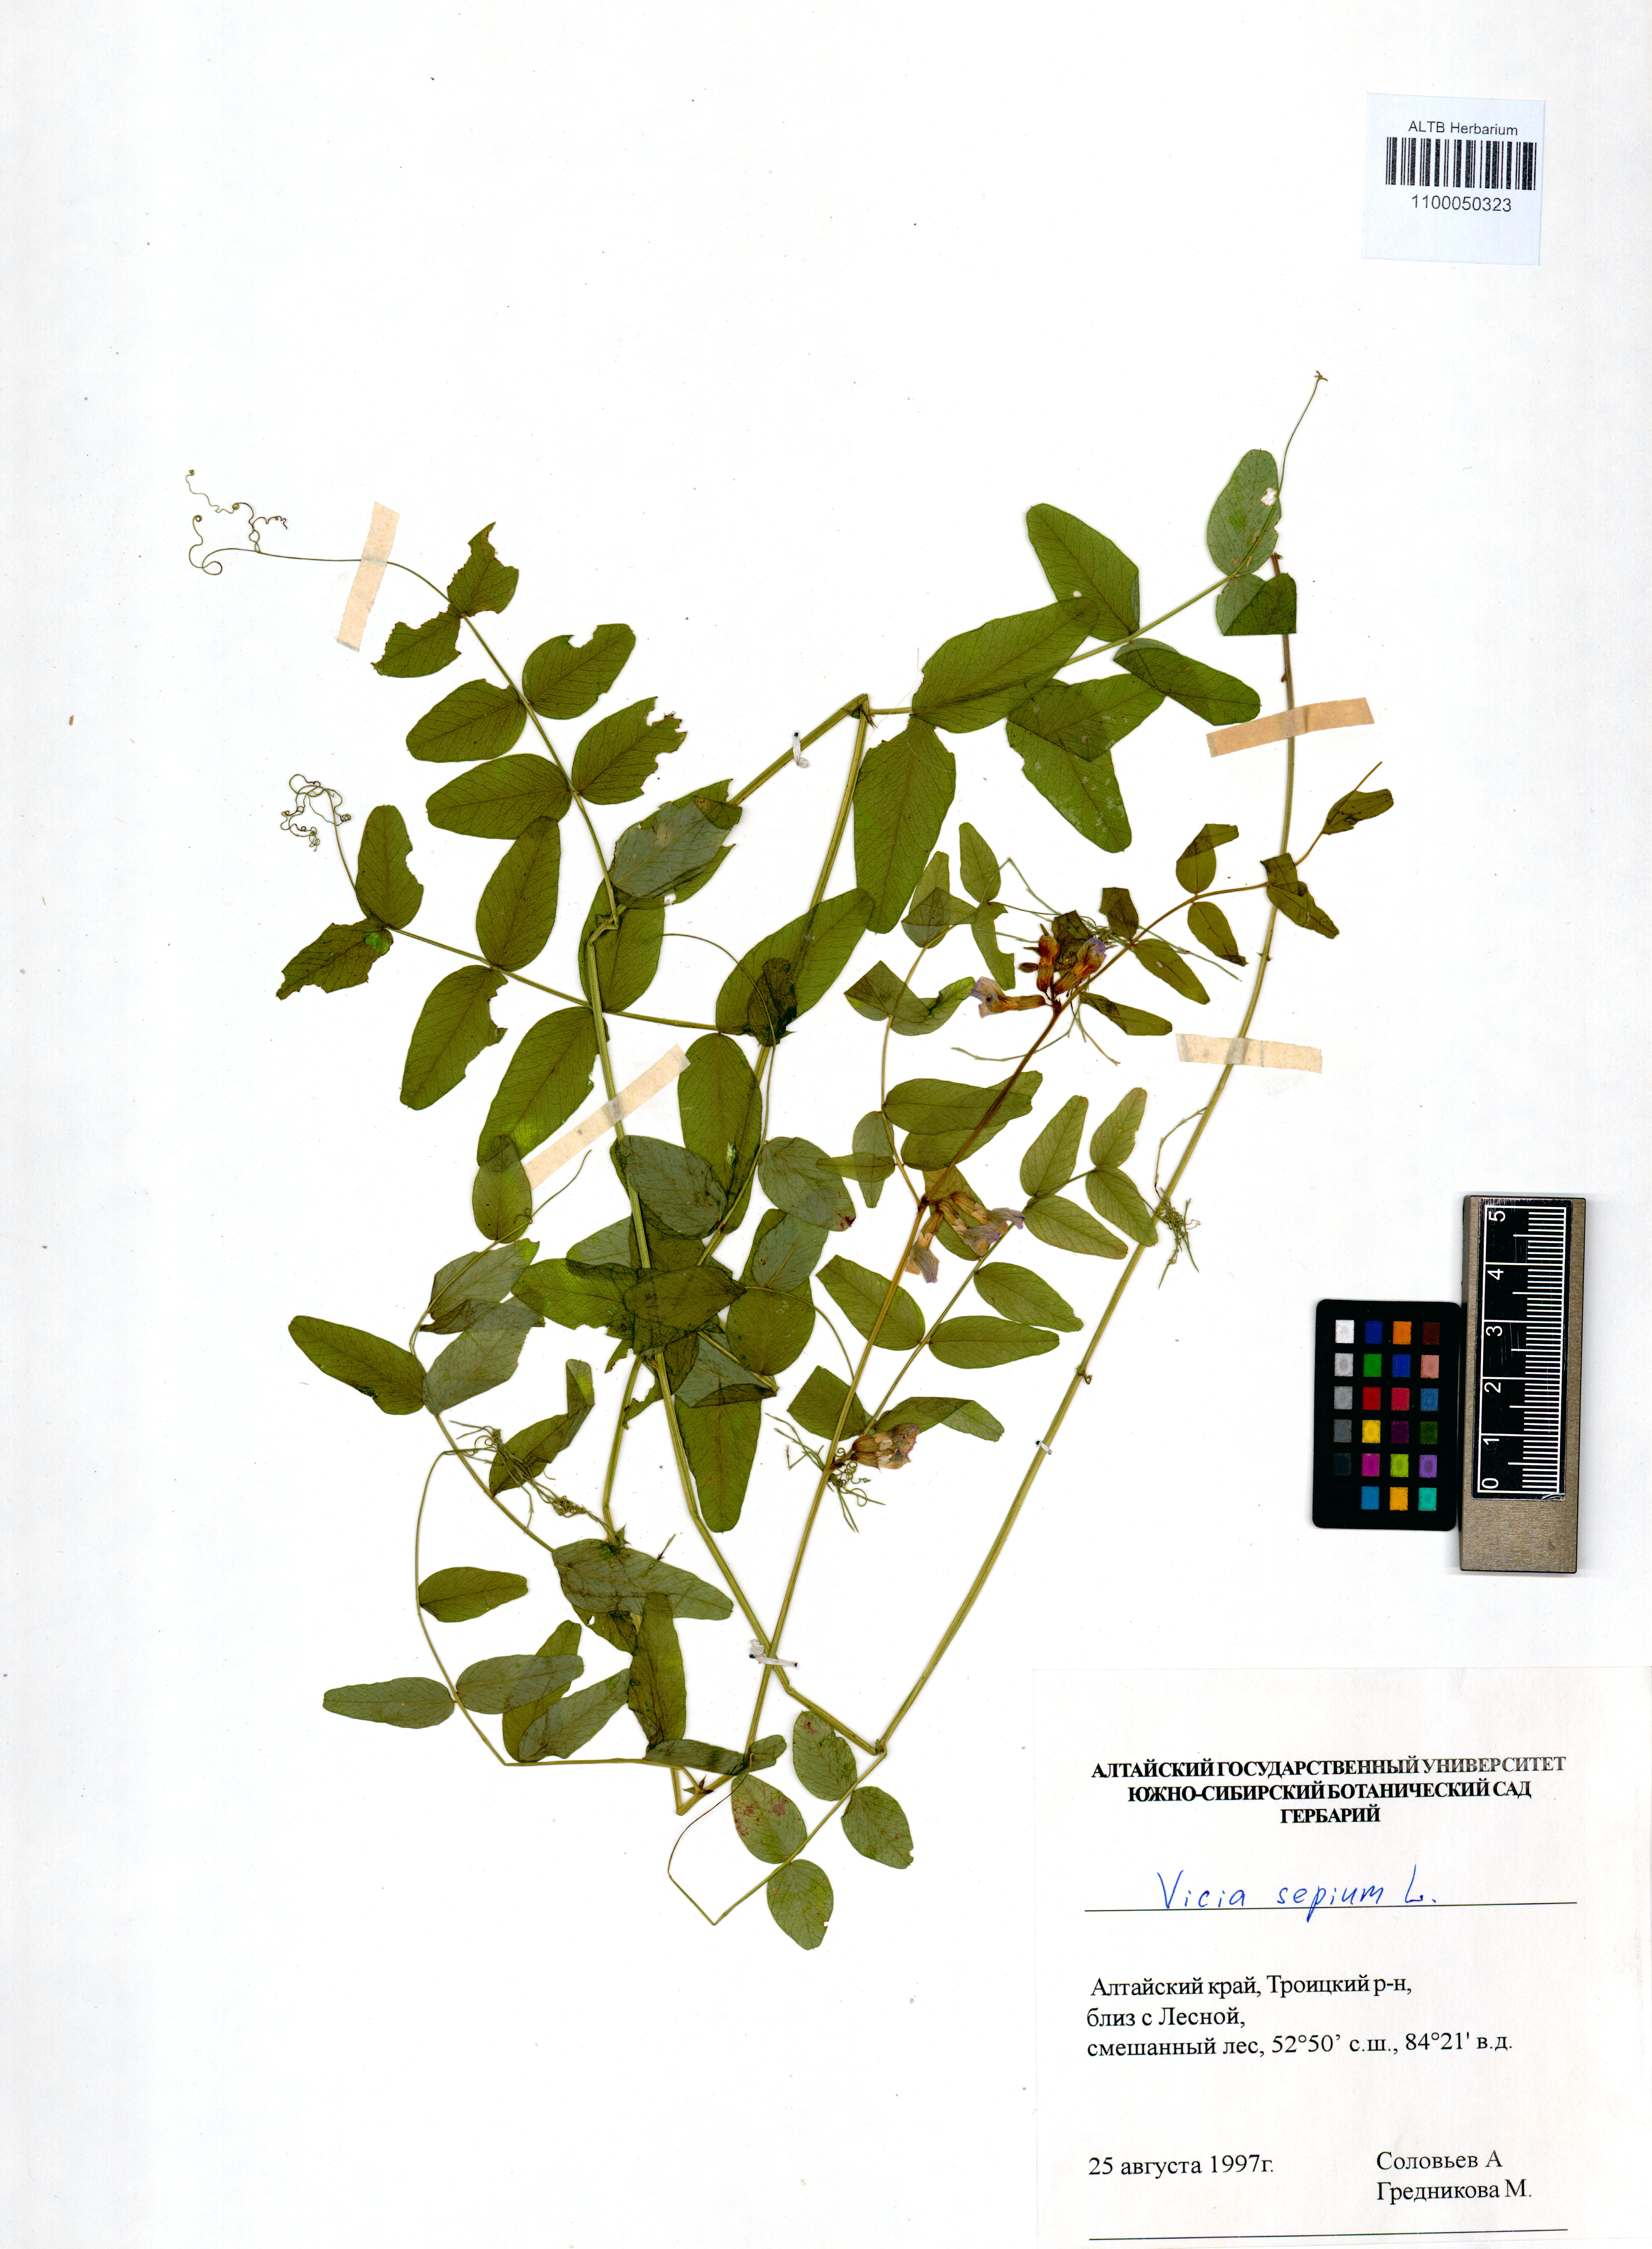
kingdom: Plantae
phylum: Tracheophyta
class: Magnoliopsida
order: Fabales
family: Fabaceae
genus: Vicia
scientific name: Vicia sepium
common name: Bush vetch
